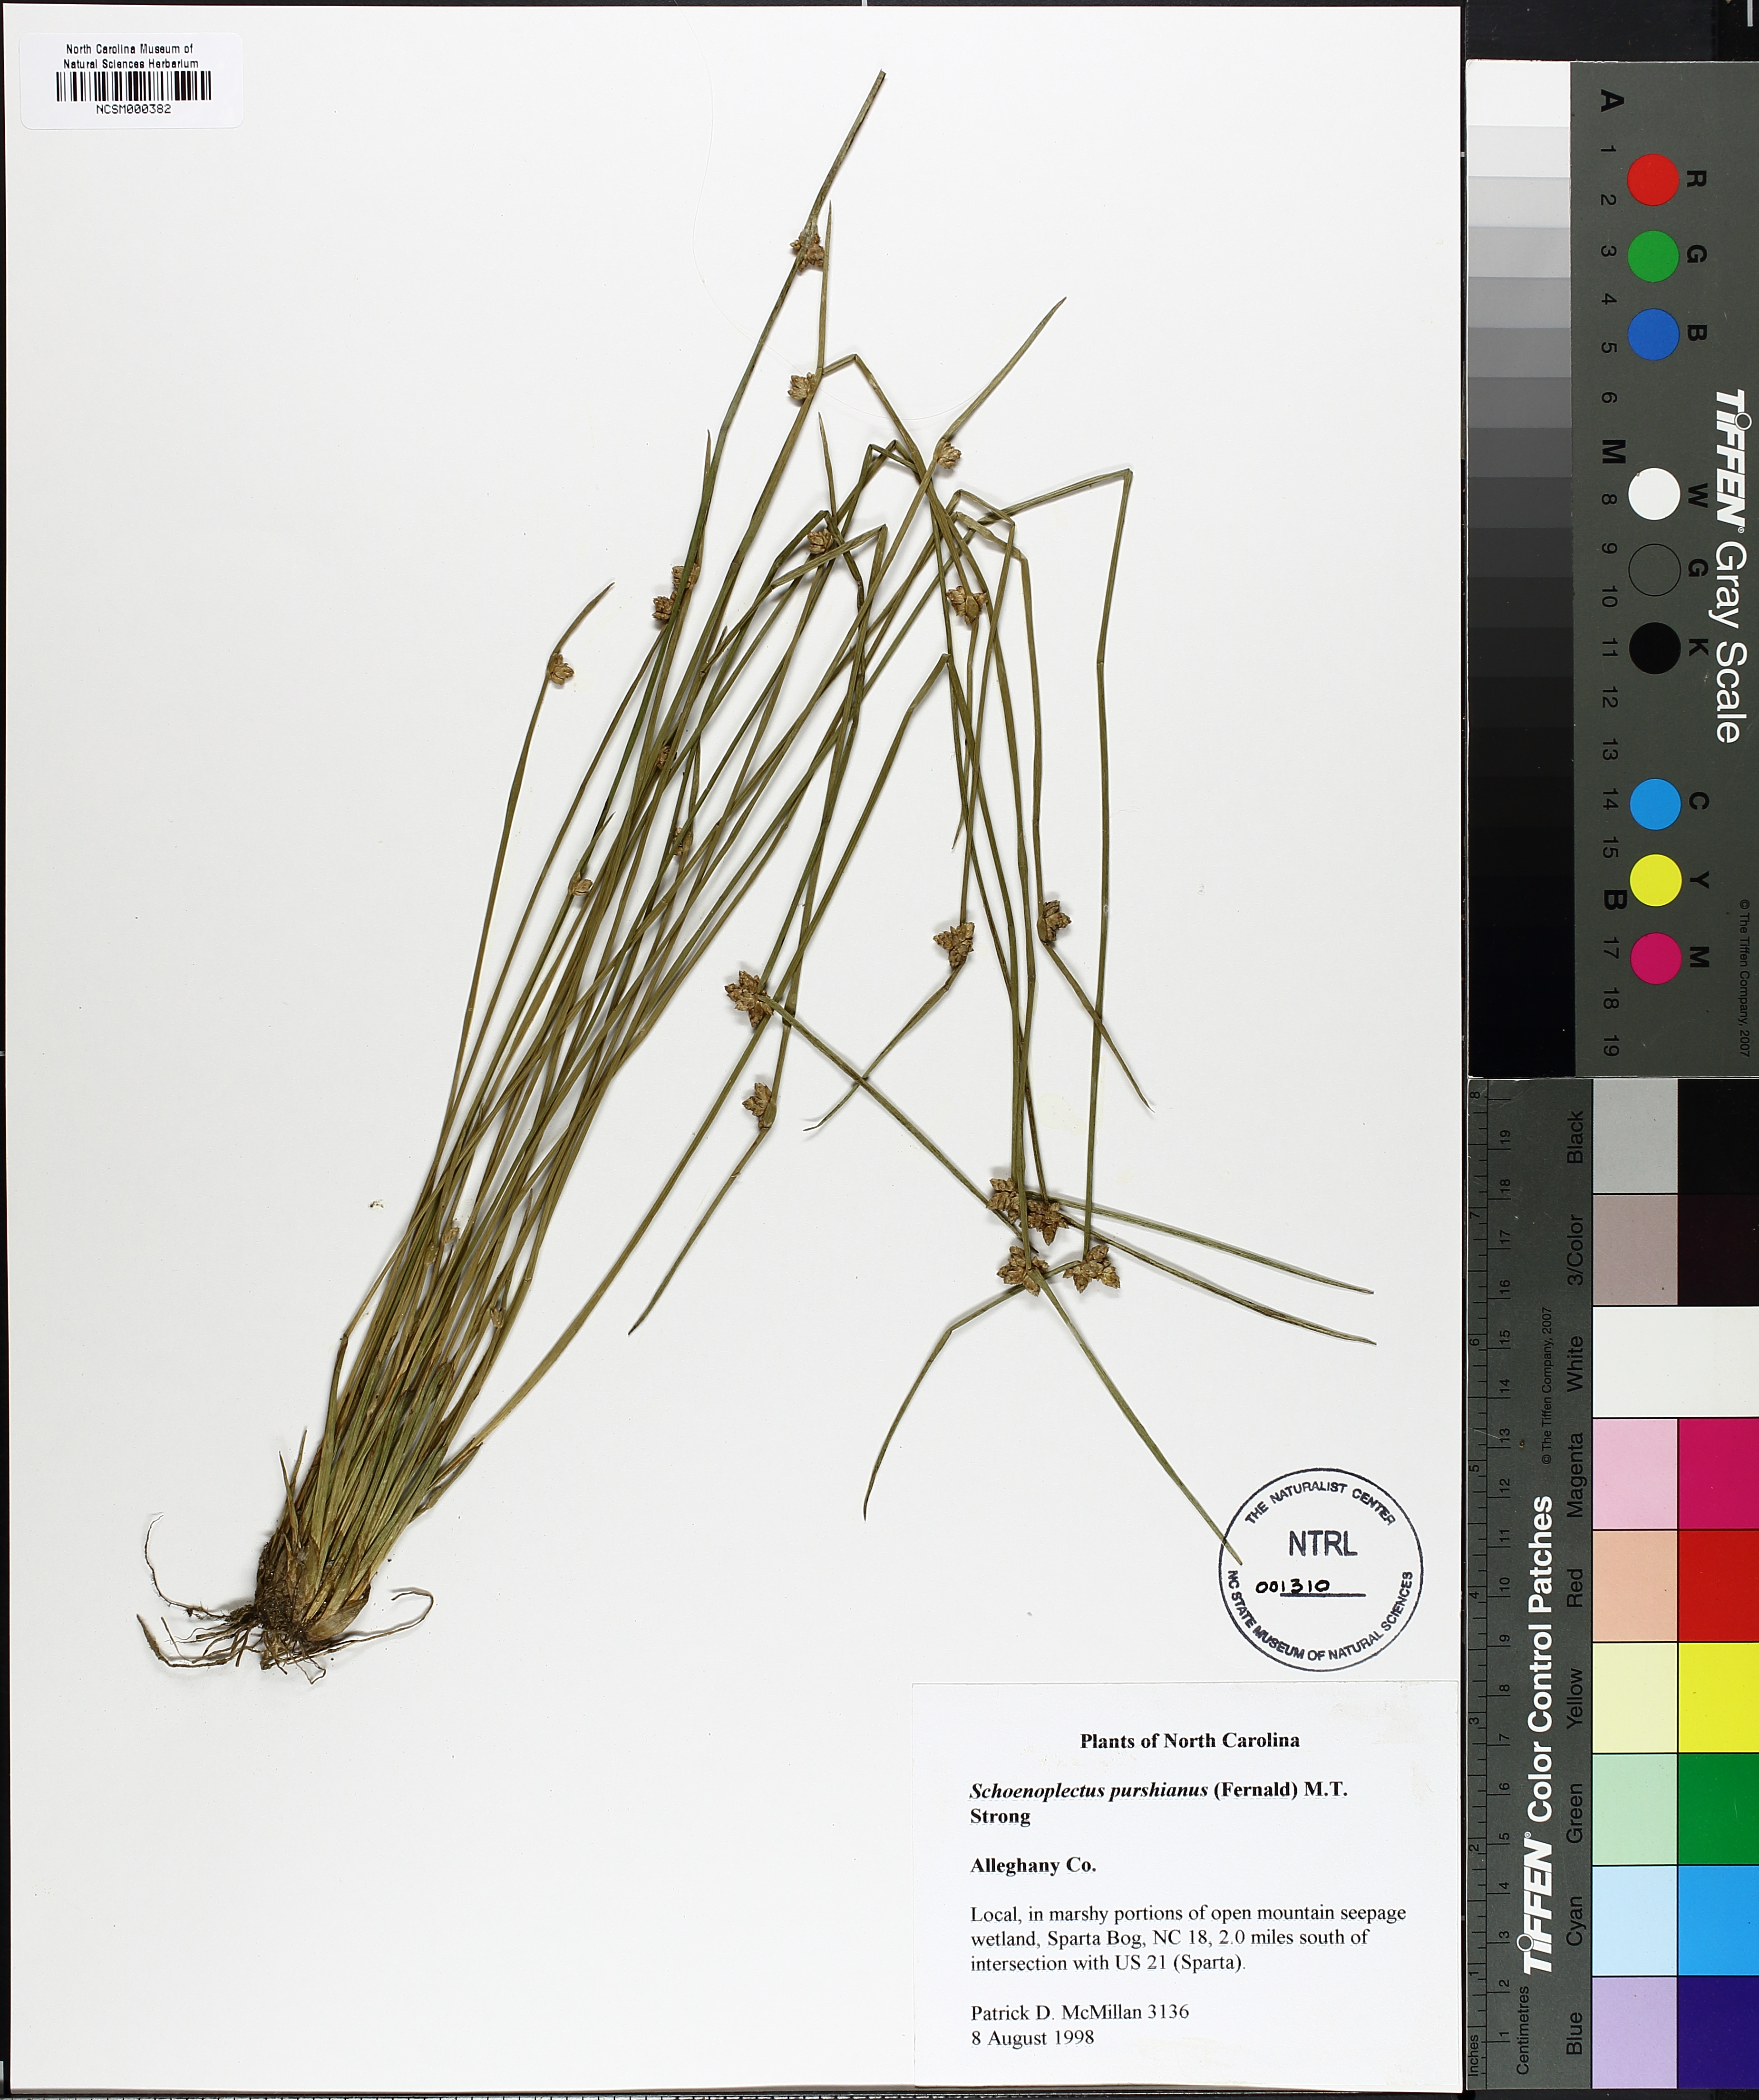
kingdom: Plantae
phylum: Tracheophyta
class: Liliopsida
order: Poales
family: Cyperaceae
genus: Schoenoplectiella
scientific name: Schoenoplectiella purshiana
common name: Weak-stalked bulrush
